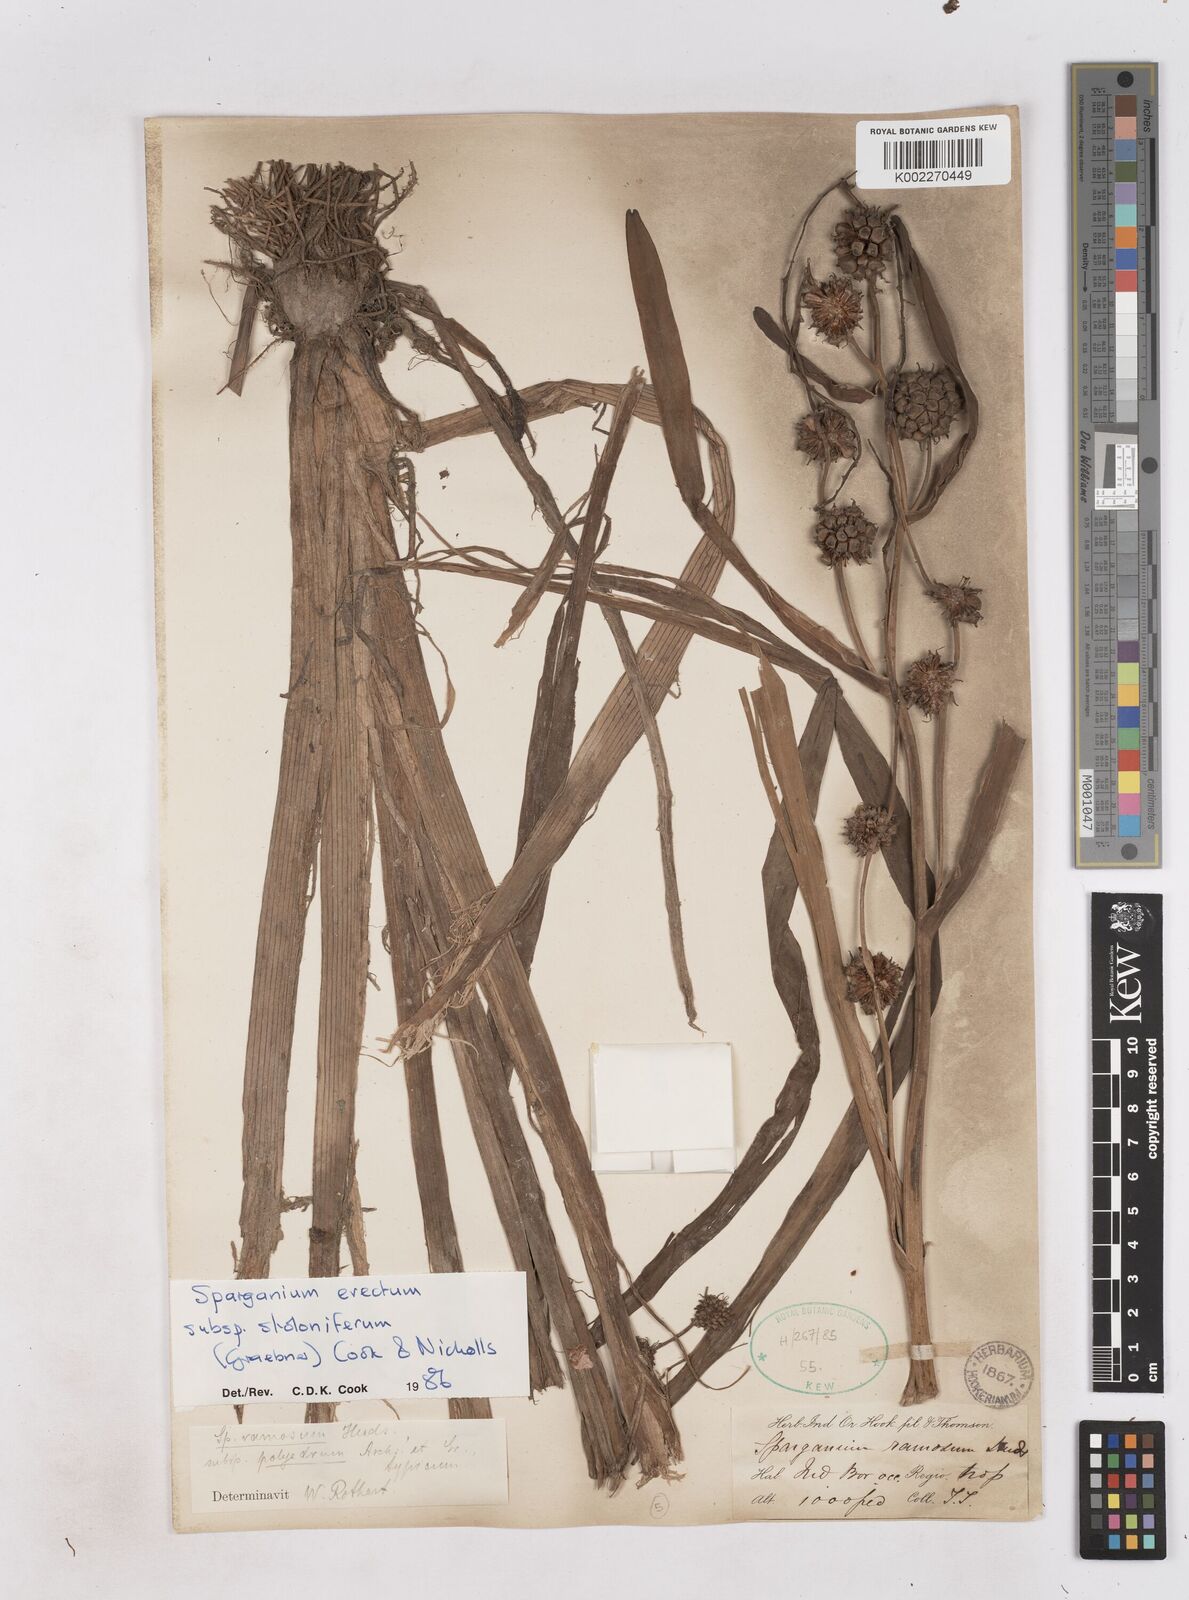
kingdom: Plantae
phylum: Tracheophyta
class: Liliopsida
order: Poales
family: Typhaceae
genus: Sparganium
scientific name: Sparganium stoloniferum
